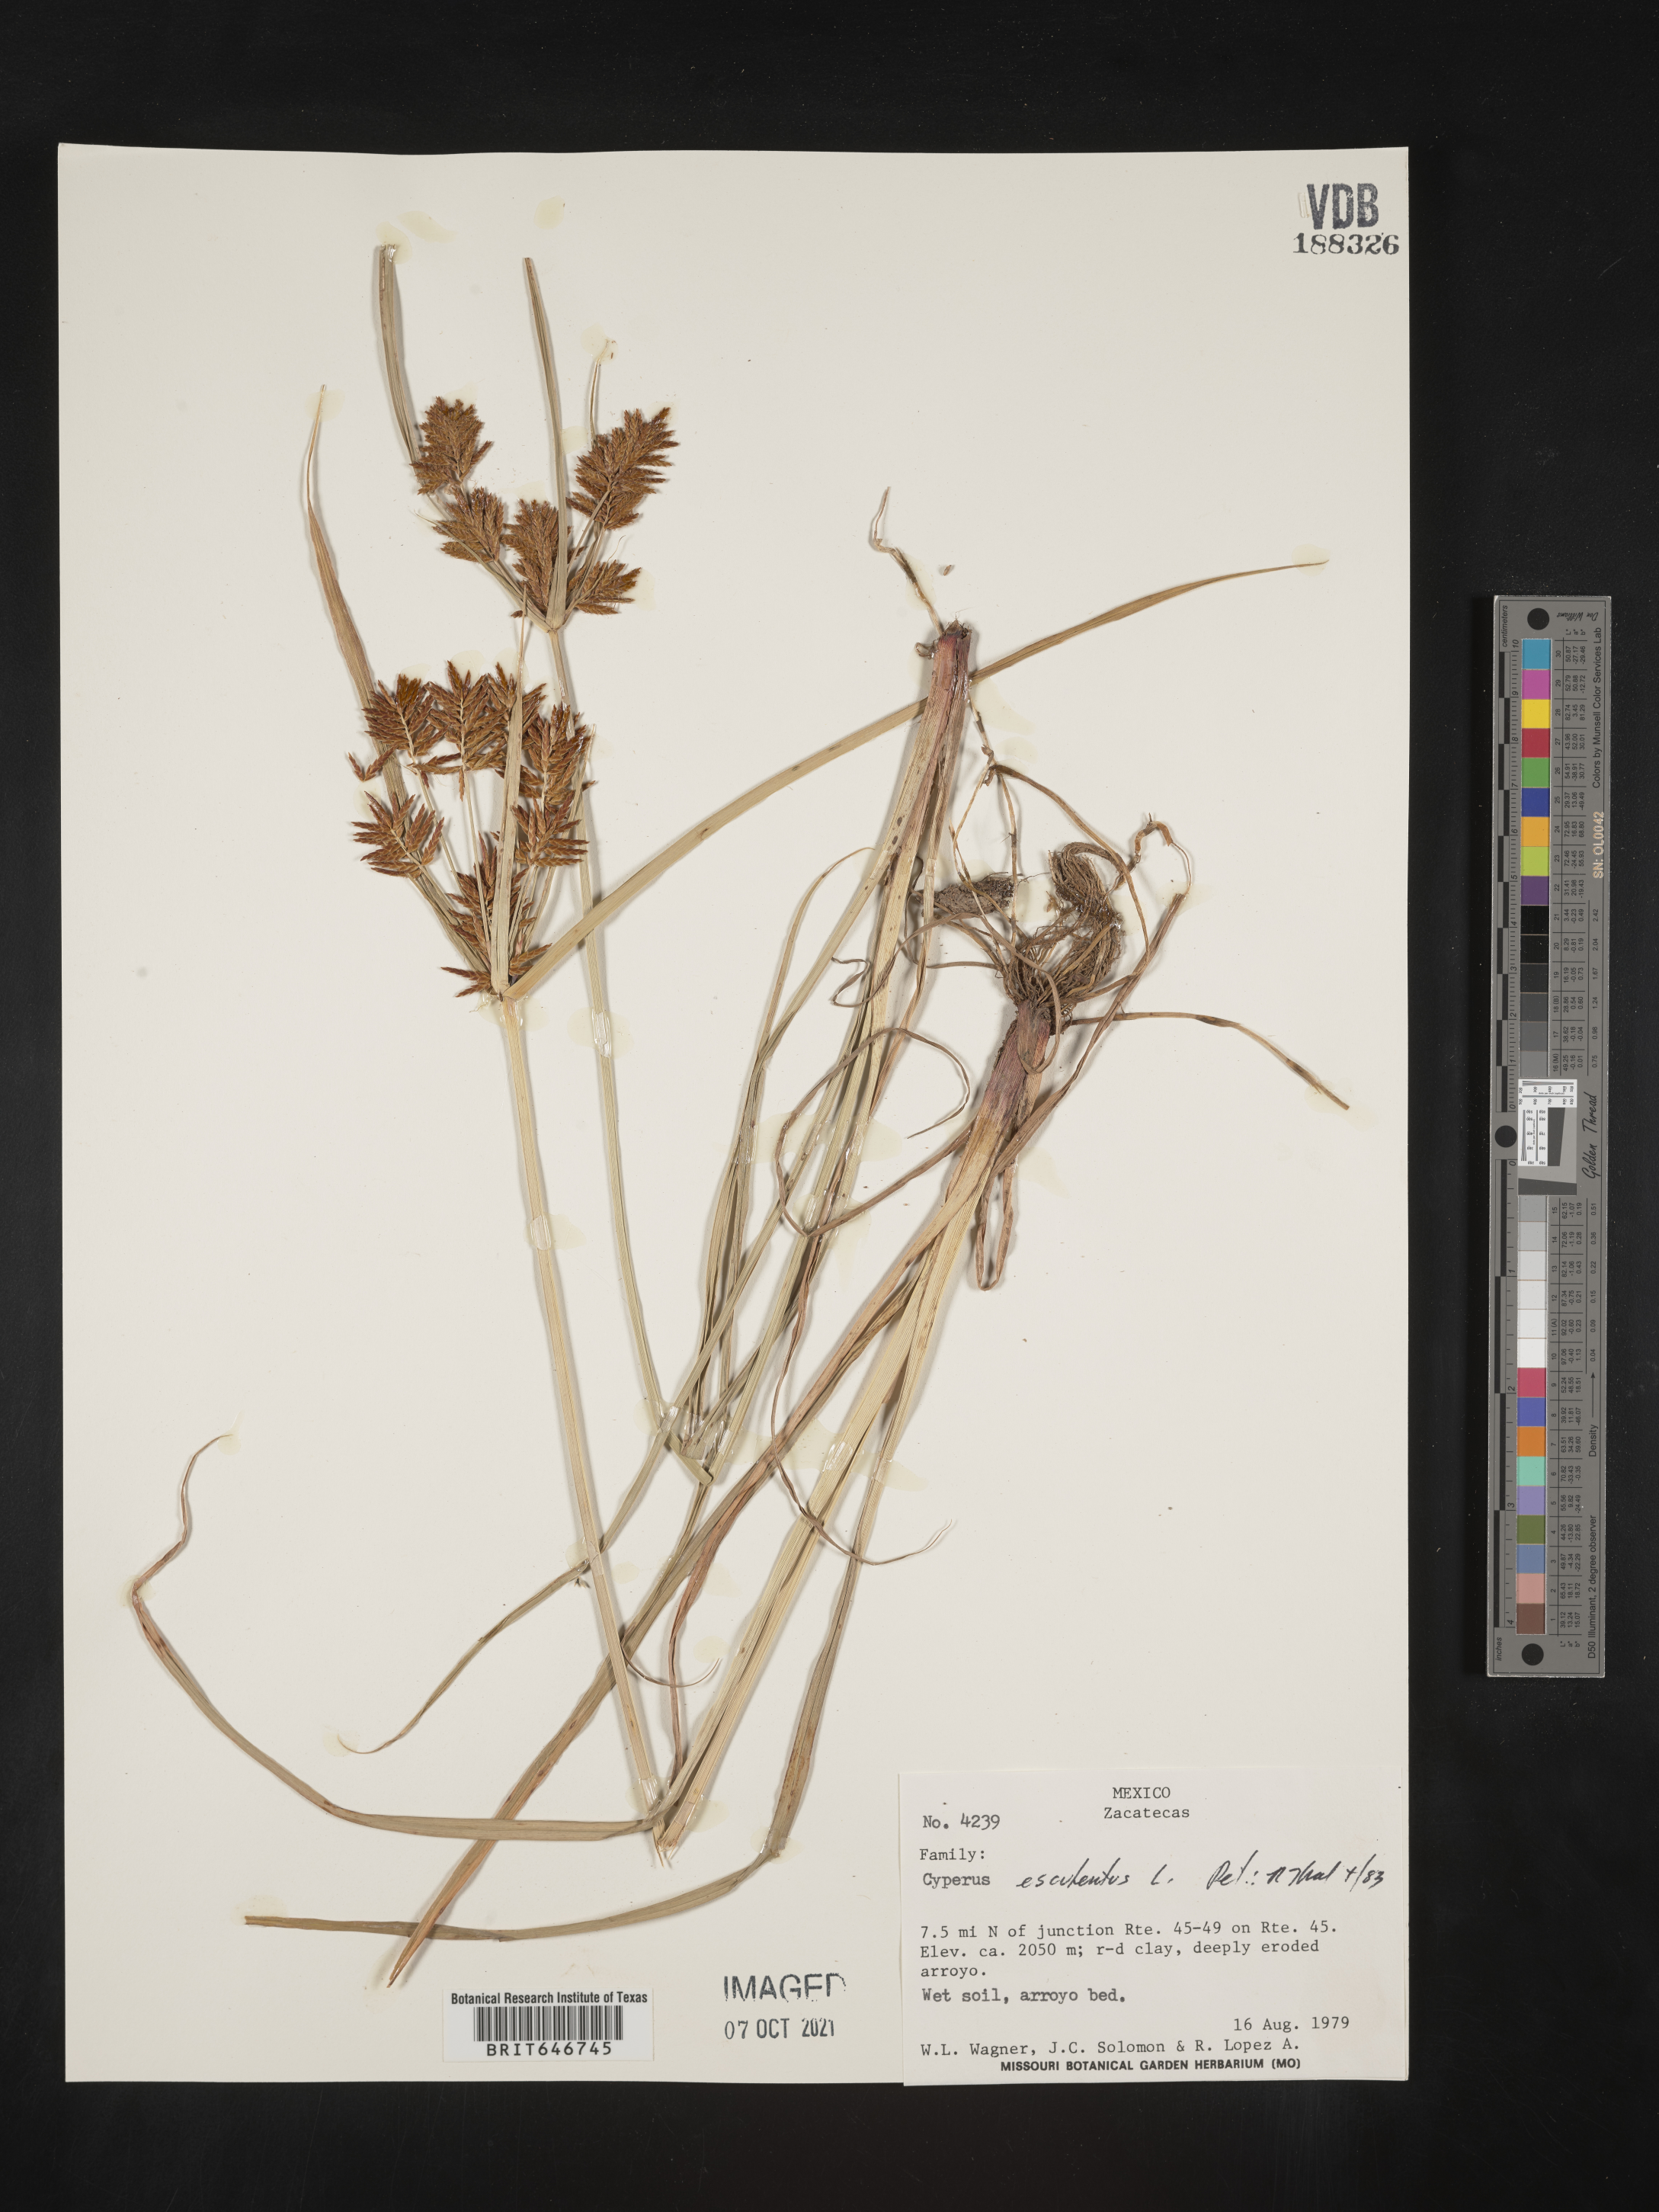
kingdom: Plantae
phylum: Tracheophyta
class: Liliopsida
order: Poales
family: Cyperaceae
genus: Cyperus
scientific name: Cyperus
